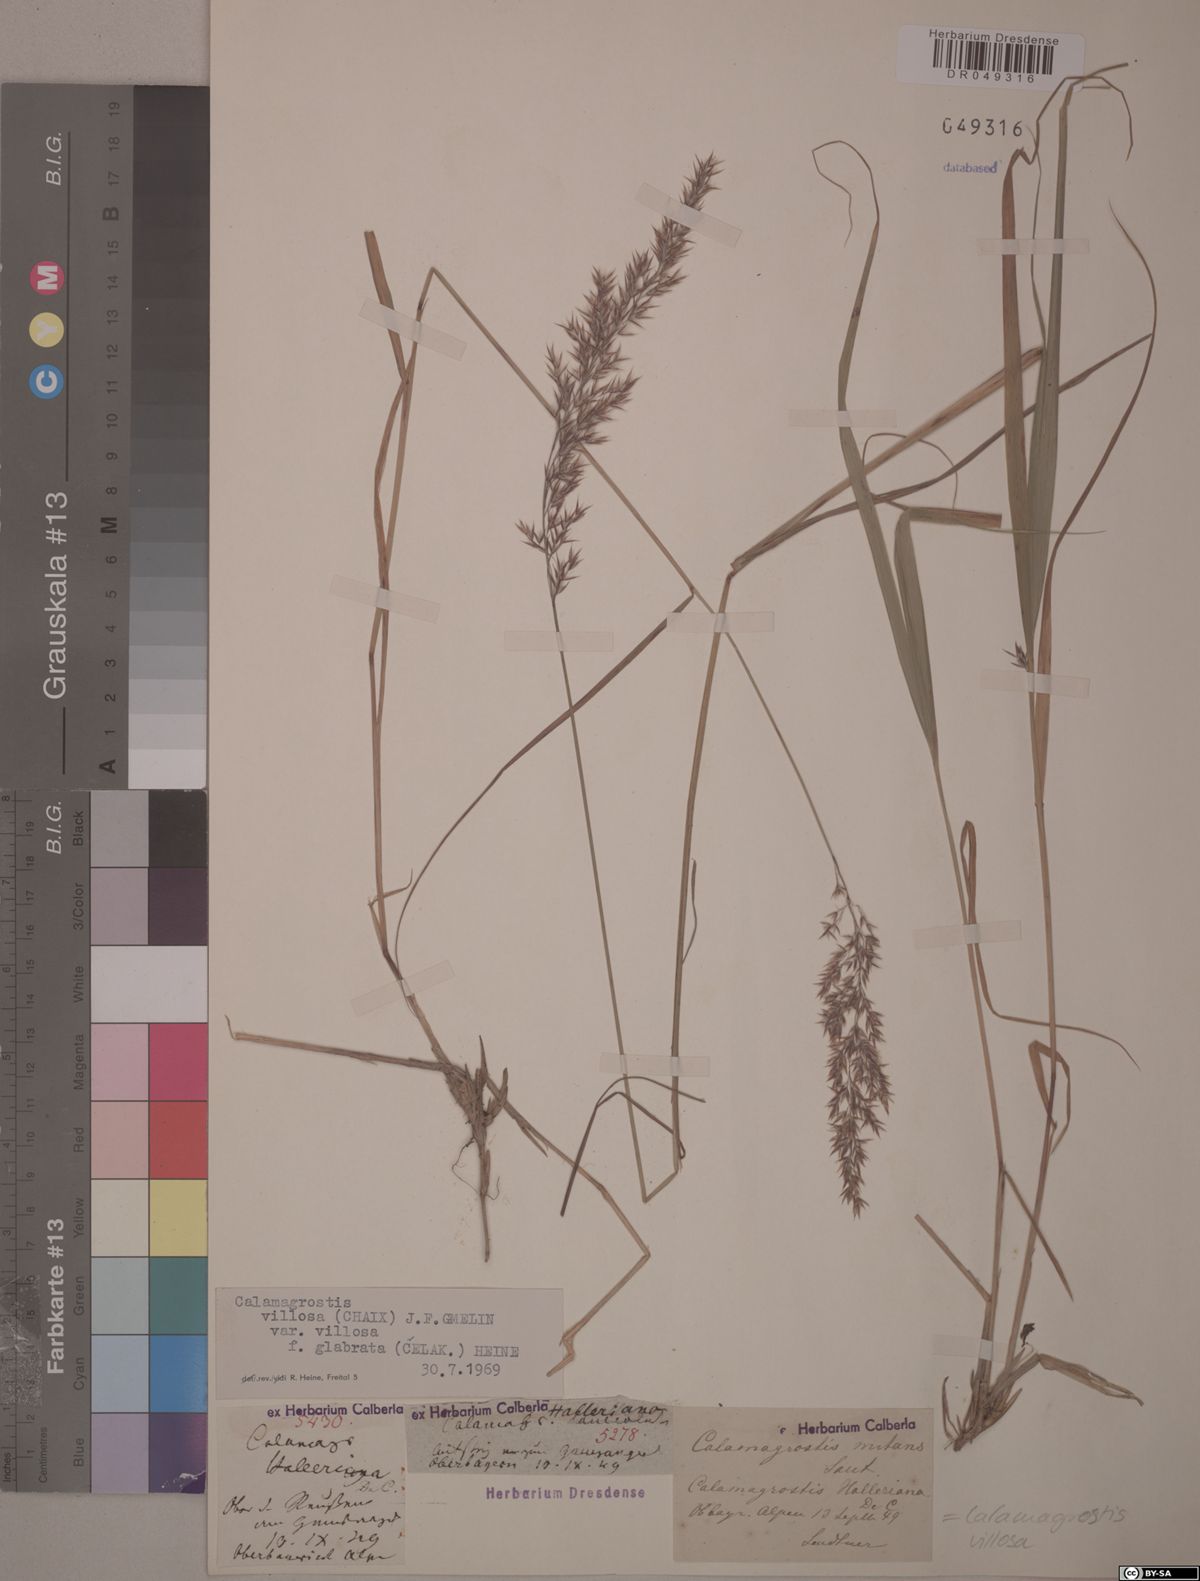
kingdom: Plantae
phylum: Tracheophyta
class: Liliopsida
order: Poales
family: Poaceae
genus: Calamagrostis
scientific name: Calamagrostis villosa
